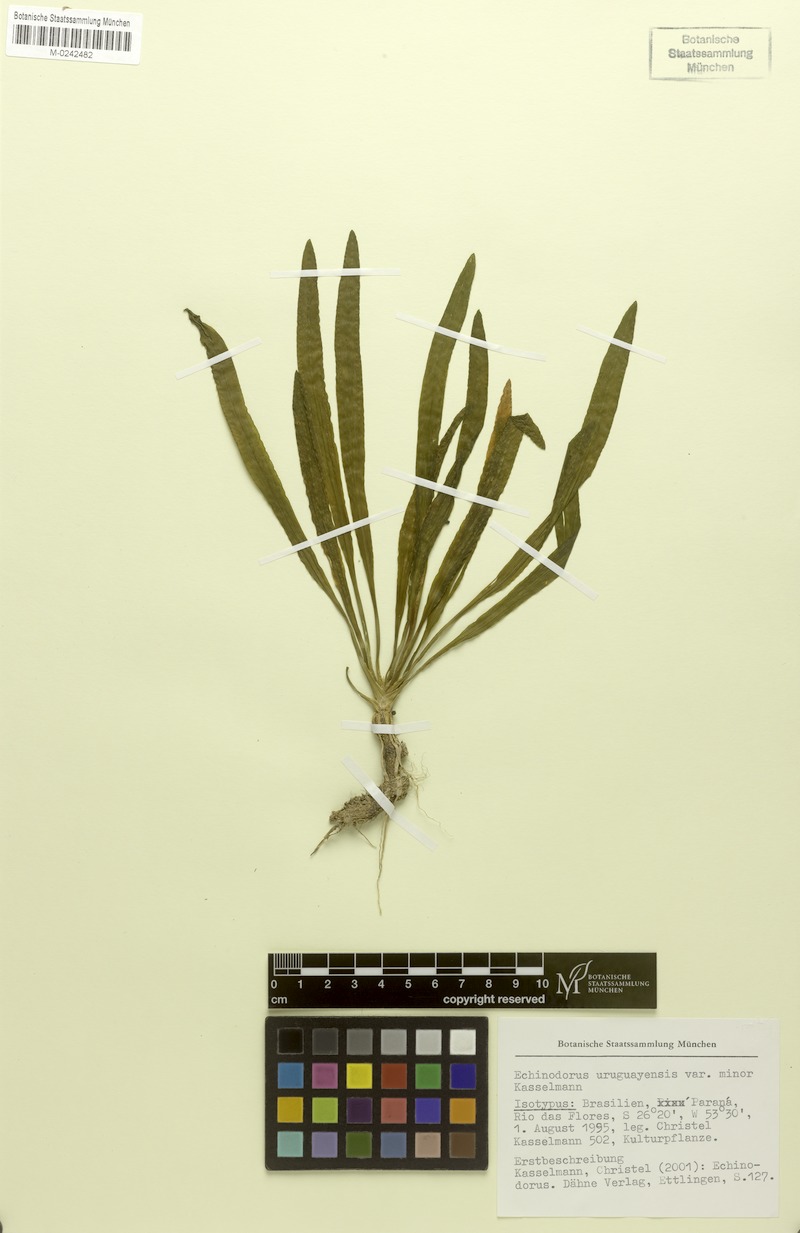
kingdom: Plantae
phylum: Tracheophyta
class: Liliopsida
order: Alismatales
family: Alismataceae
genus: Aquarius
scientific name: Aquarius uruguayensis
